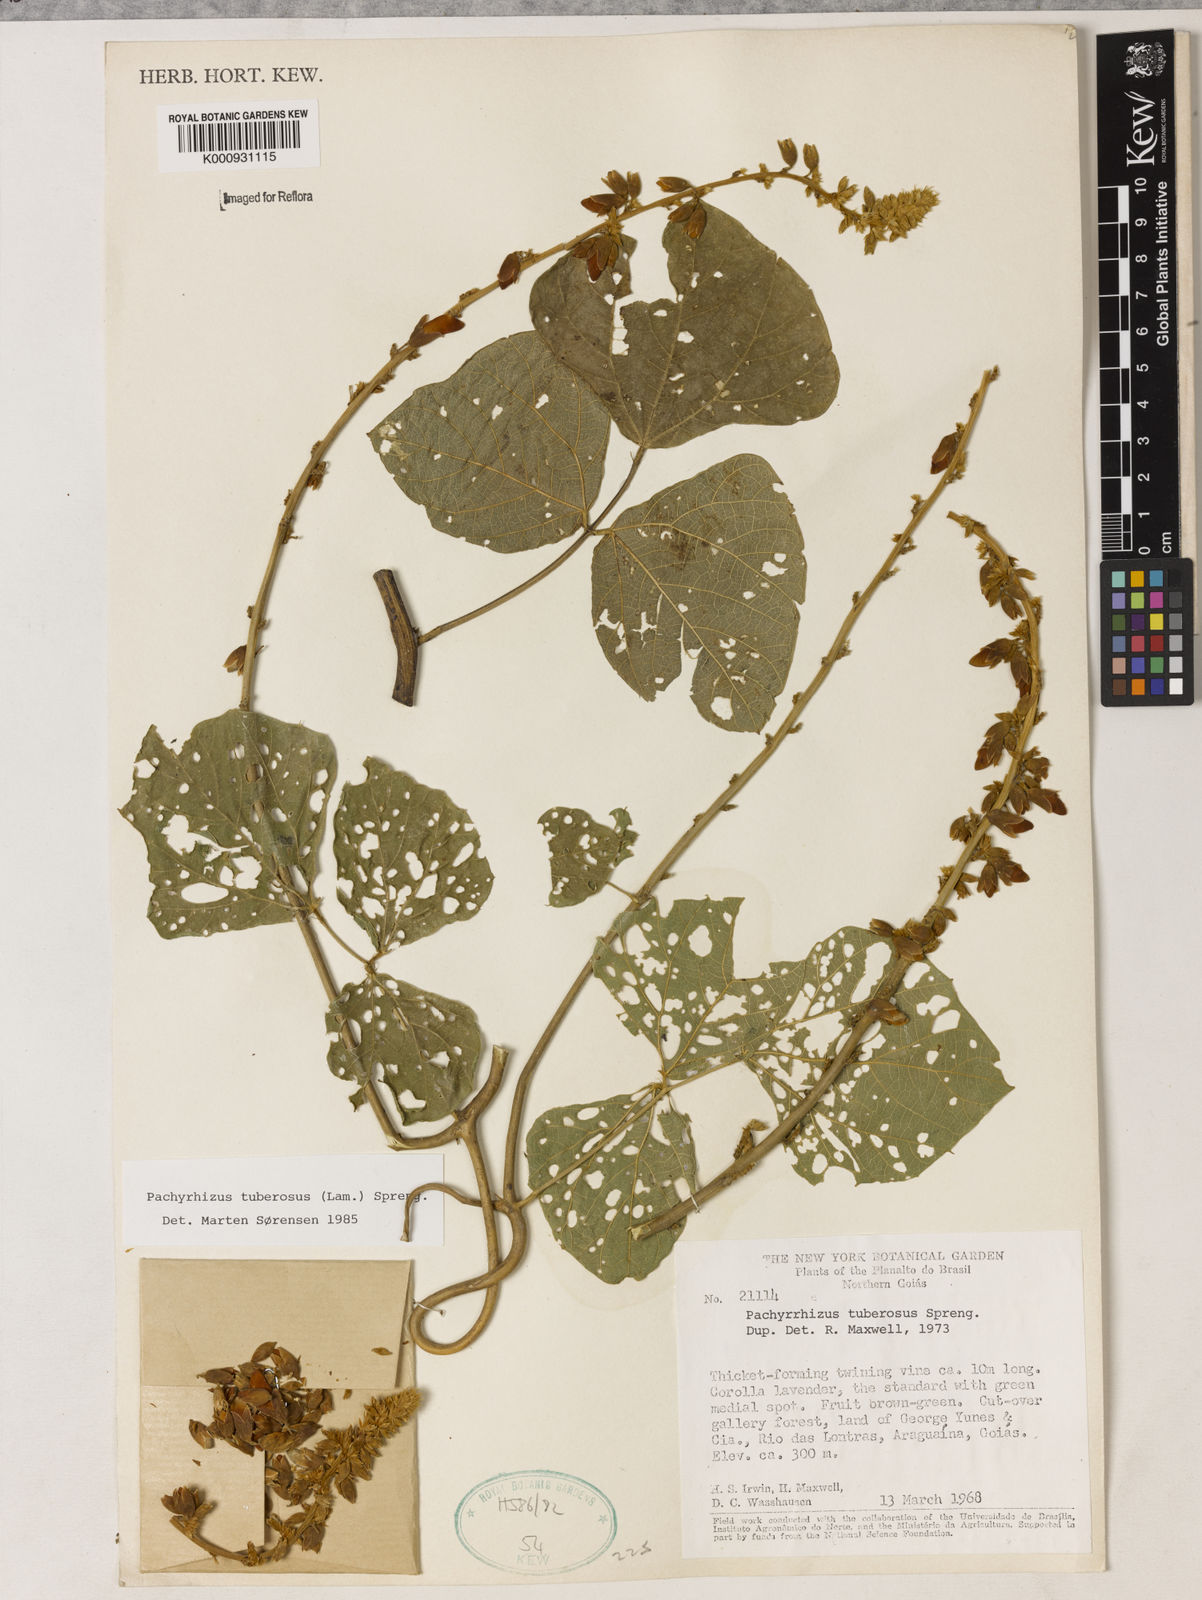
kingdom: Plantae
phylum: Tracheophyta
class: Magnoliopsida
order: Fabales
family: Fabaceae
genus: Pachyrhizus
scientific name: Pachyrhizus tuberosus
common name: Yam-bean
